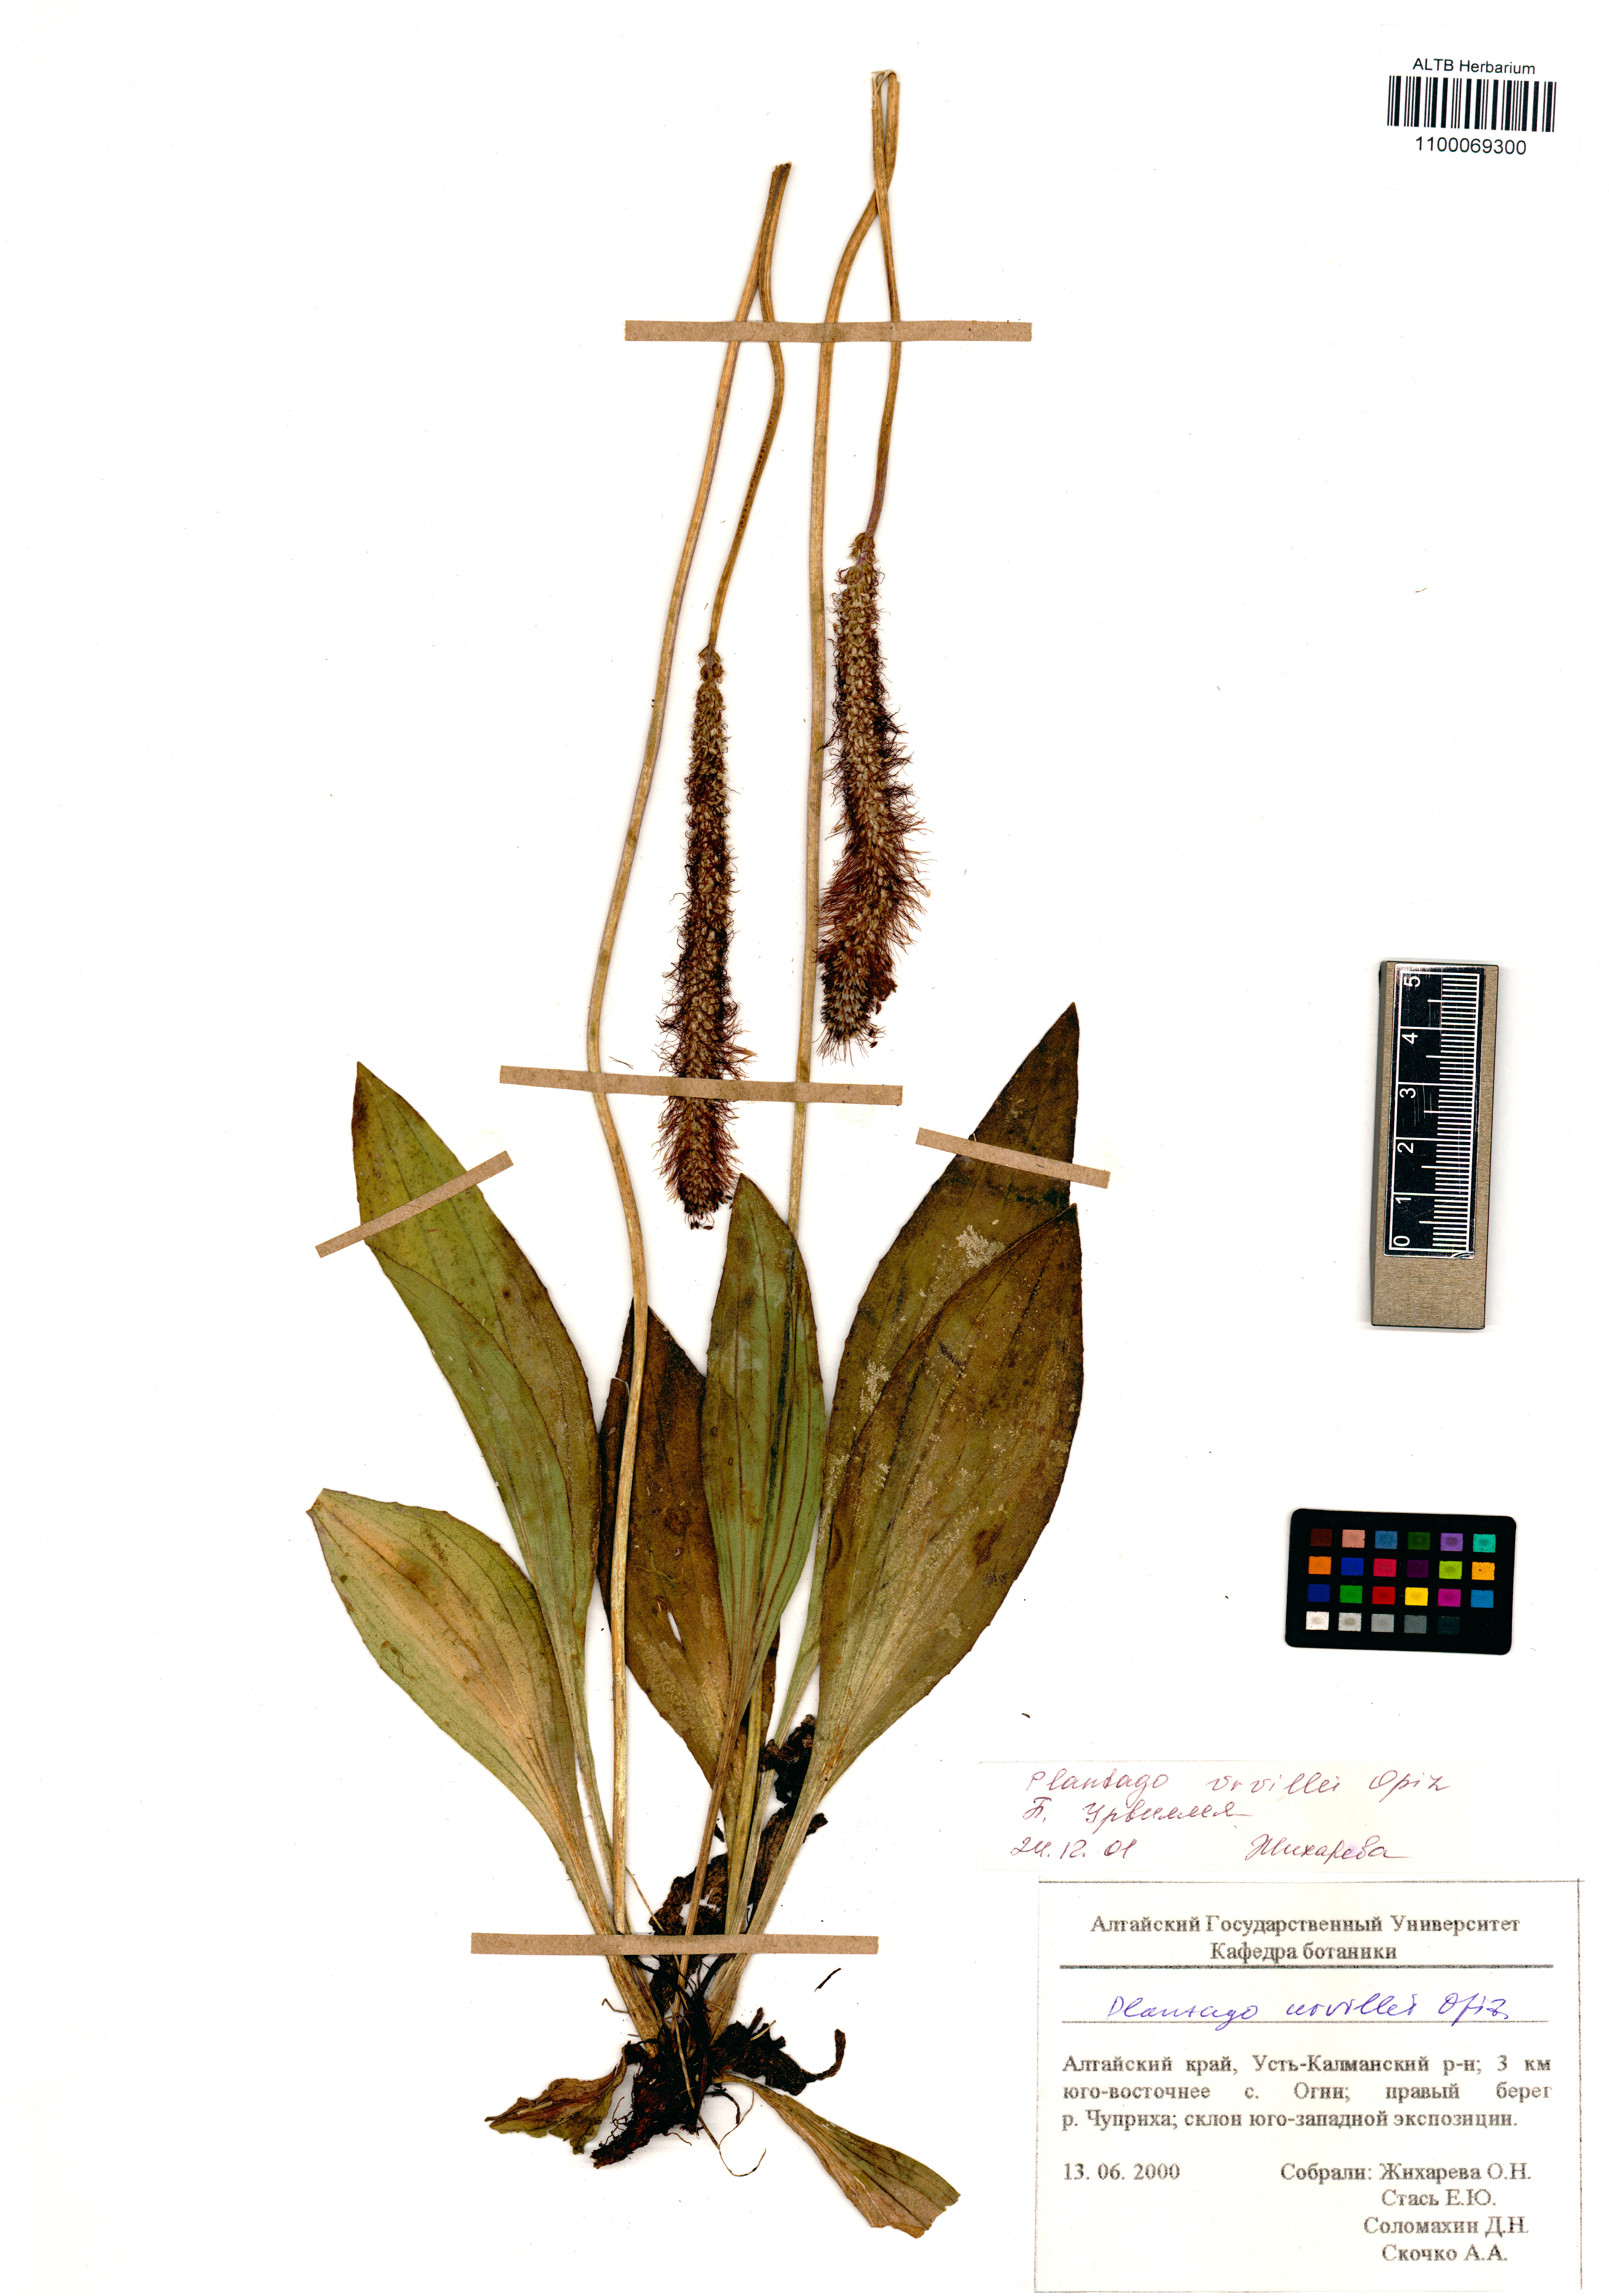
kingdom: Plantae
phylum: Tracheophyta
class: Magnoliopsida
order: Lamiales
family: Plantaginaceae
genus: Plantago
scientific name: Plantago urvillei
